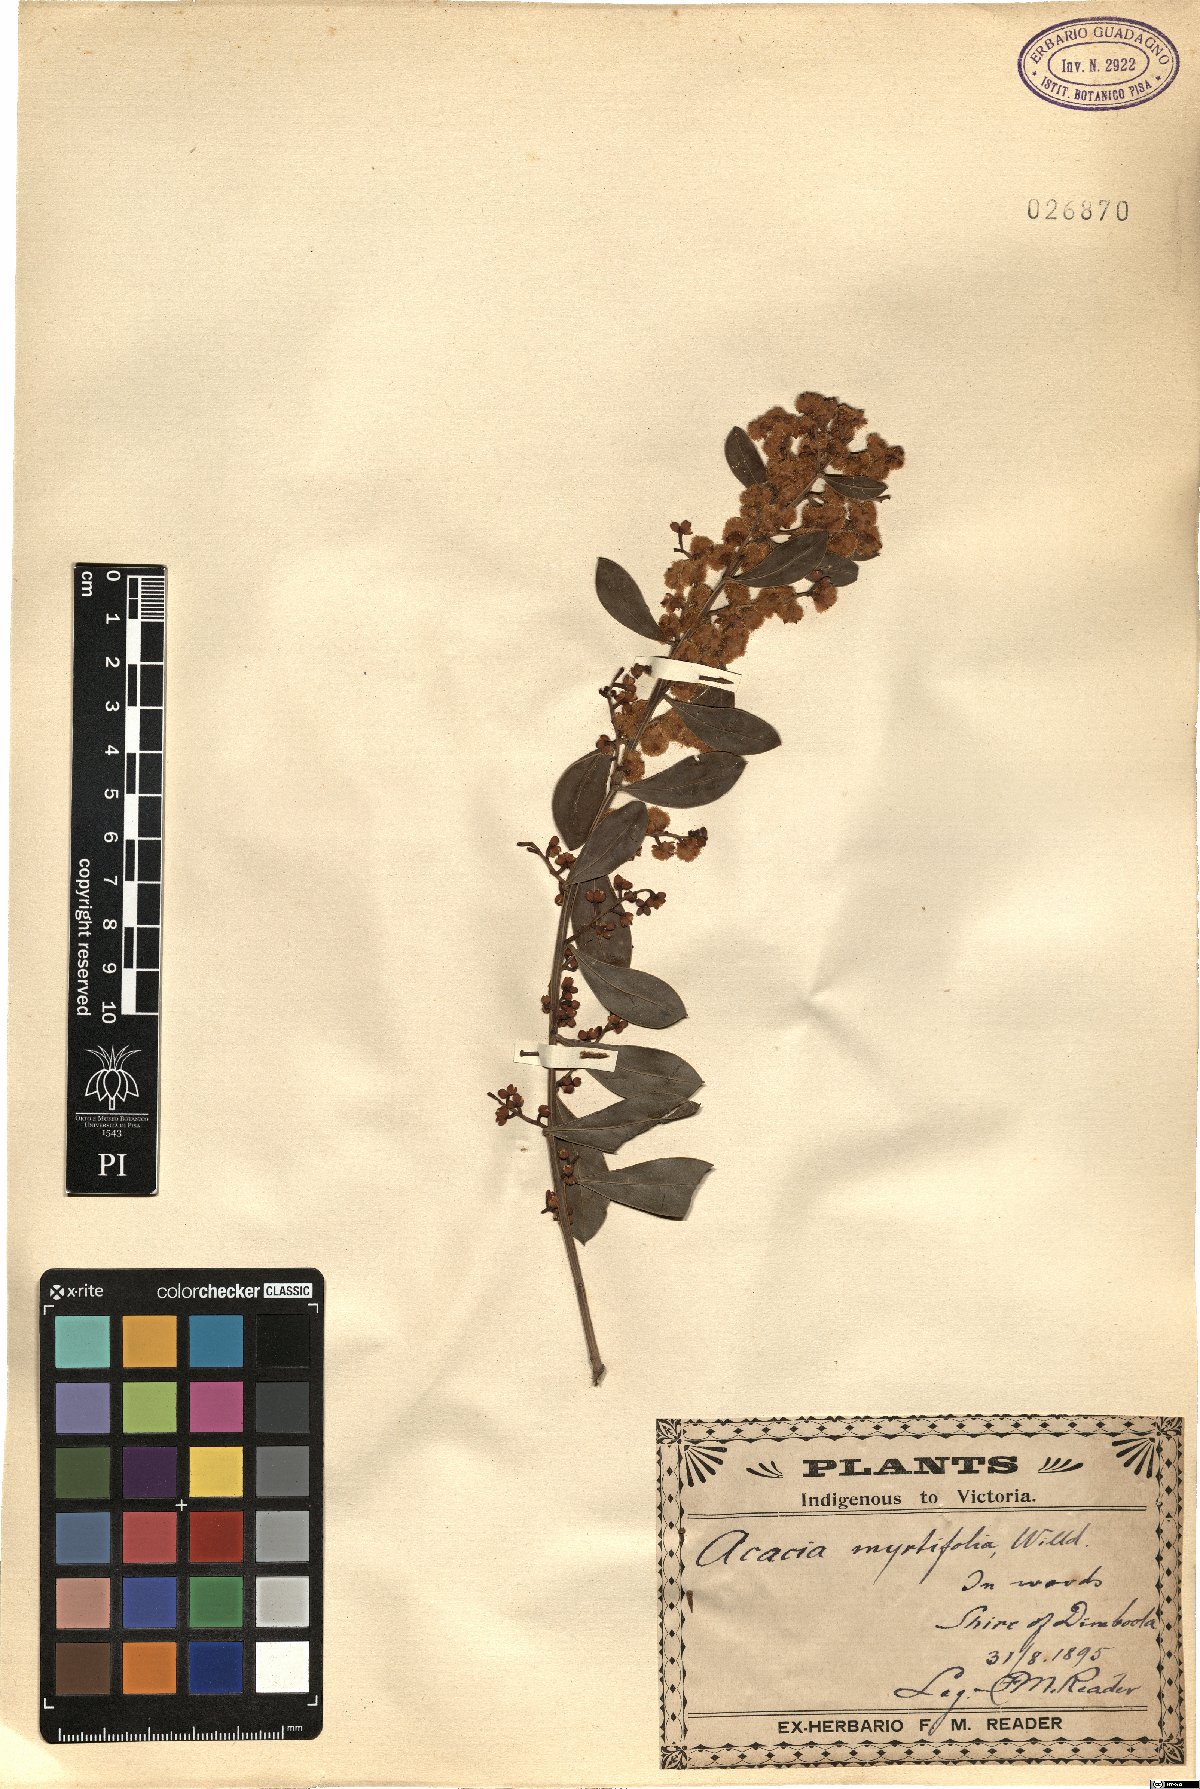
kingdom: Plantae
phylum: Tracheophyta
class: Magnoliopsida
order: Fabales
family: Fabaceae
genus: Acacia
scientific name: Acacia myrtifolia
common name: Myrtle wattle
